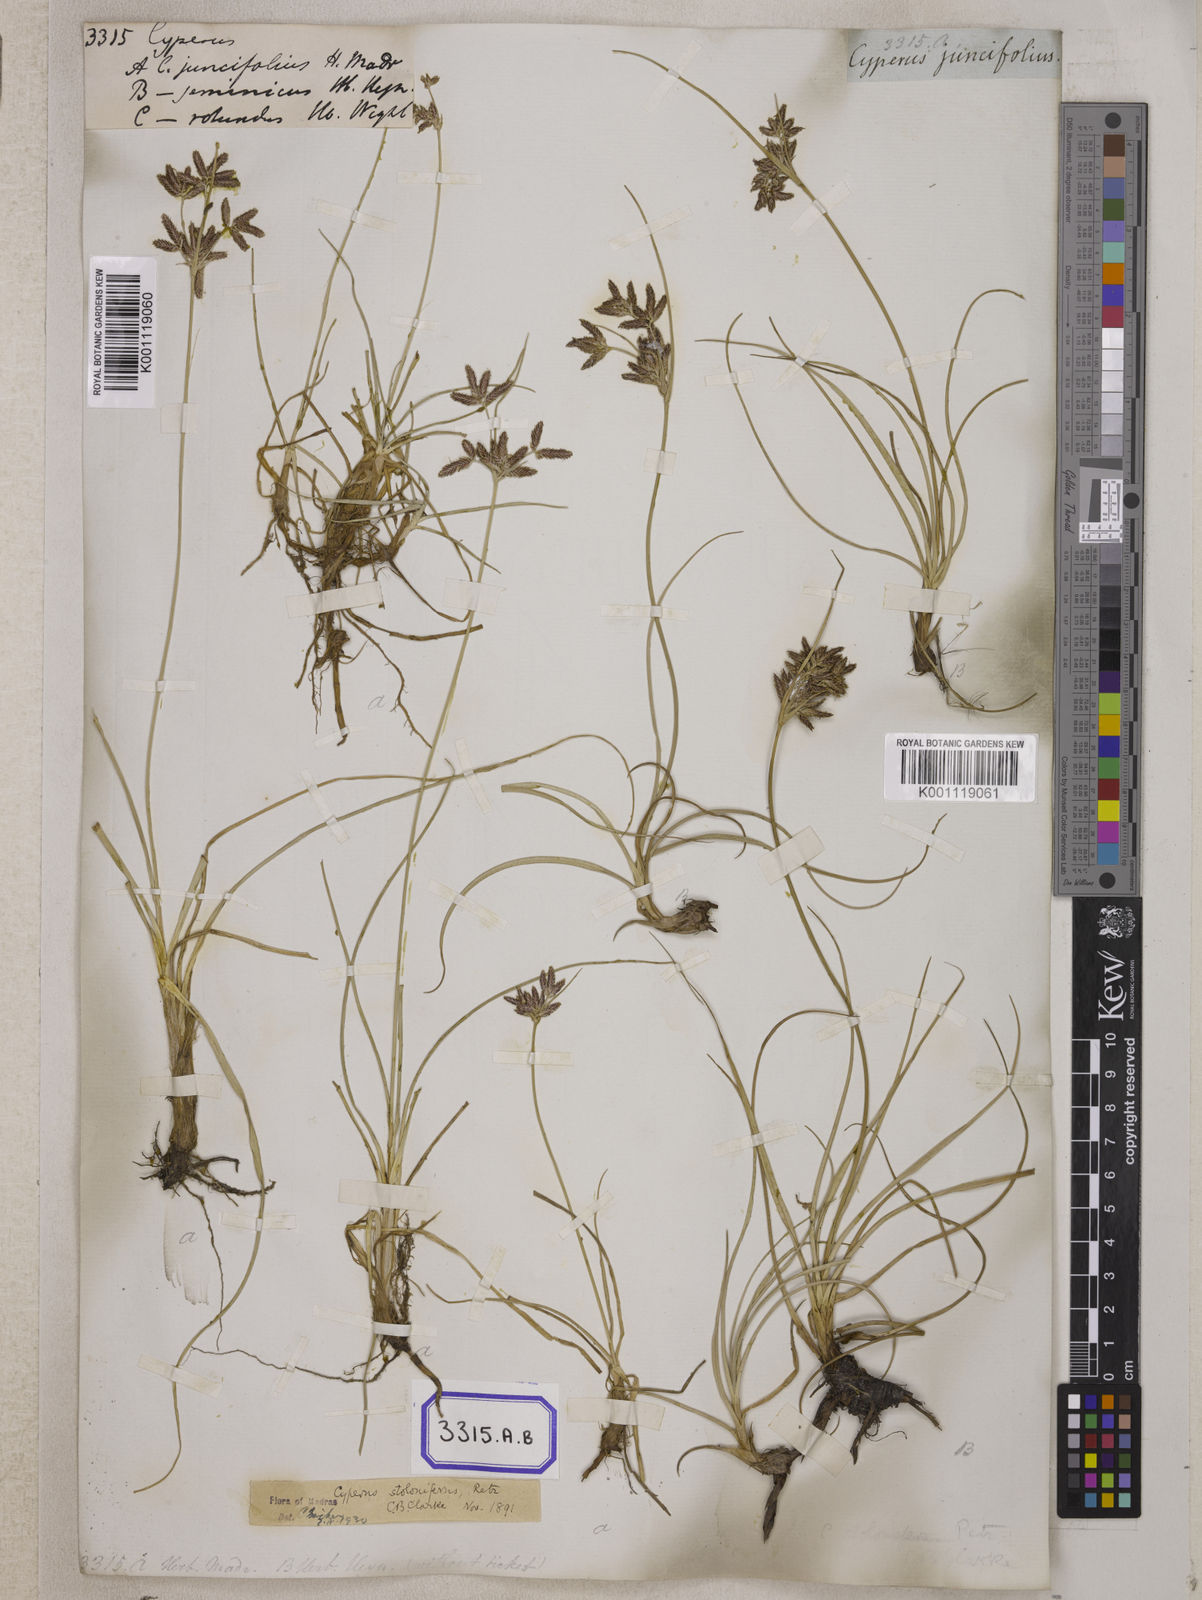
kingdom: Plantae
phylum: Tracheophyta
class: Liliopsida
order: Poales
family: Cyperaceae
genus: Cyperus
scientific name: Cyperus
